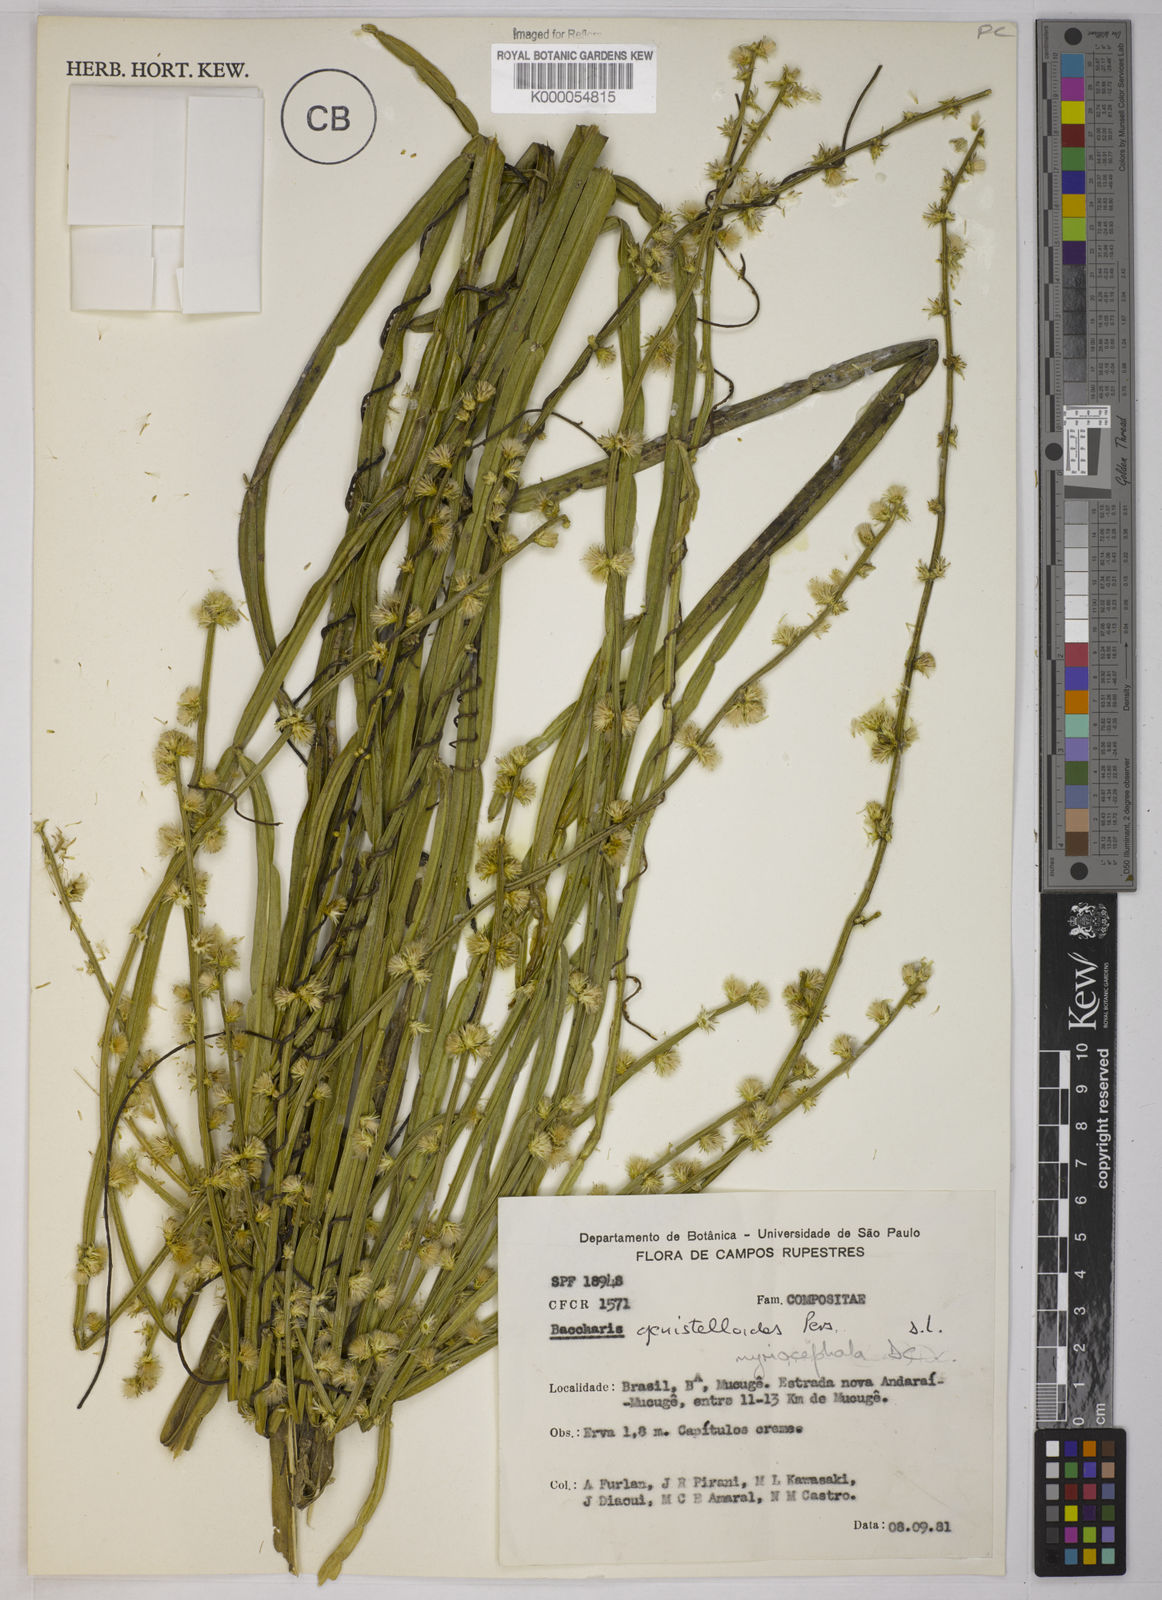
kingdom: Plantae
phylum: Tracheophyta
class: Magnoliopsida
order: Asterales
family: Asteraceae
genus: Baccharis
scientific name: Baccharis myriocephala
